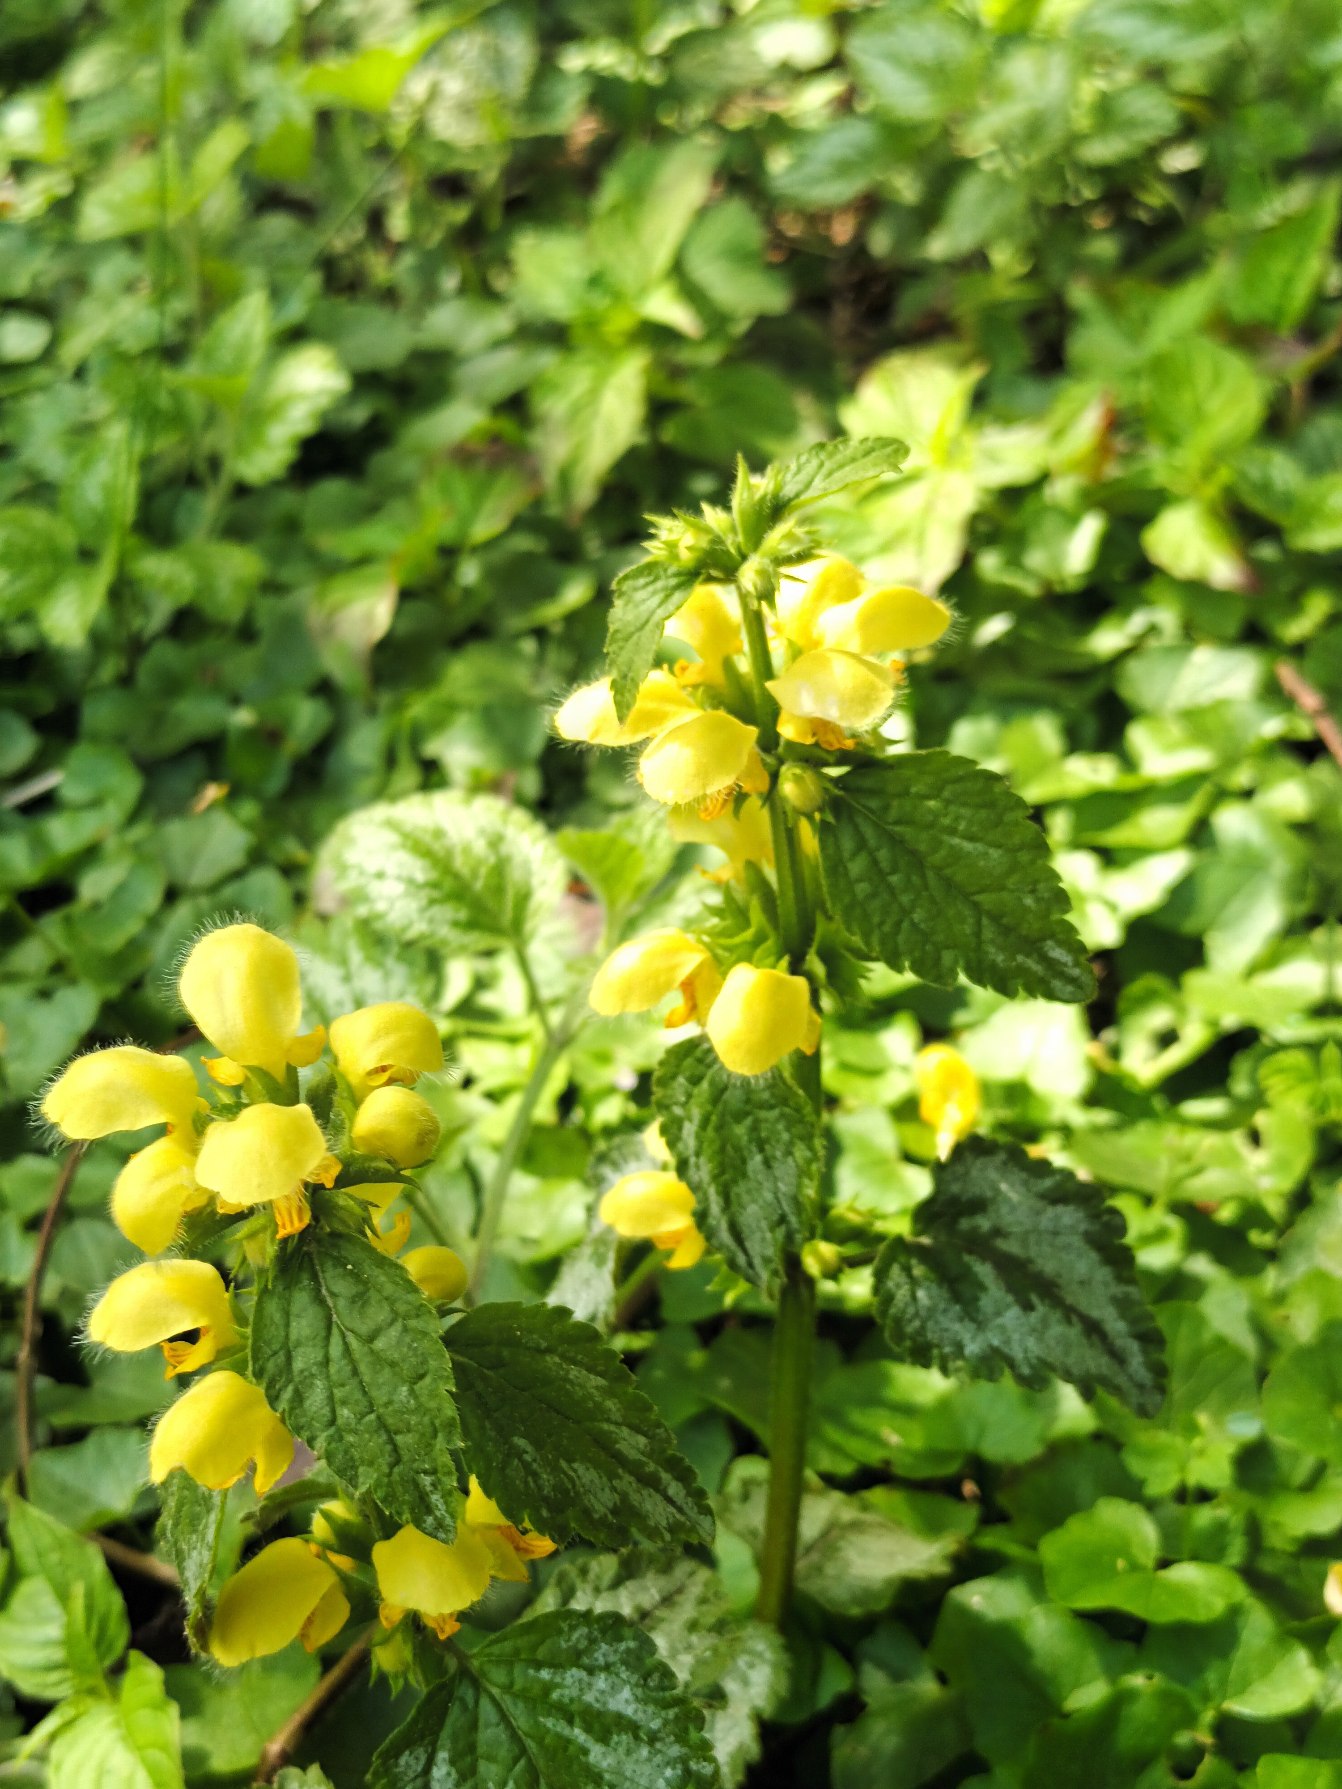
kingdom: Plantae
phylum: Tracheophyta
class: Magnoliopsida
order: Lamiales
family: Lamiaceae
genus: Lamium
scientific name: Lamium galeobdolon
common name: Have-guldnælde
